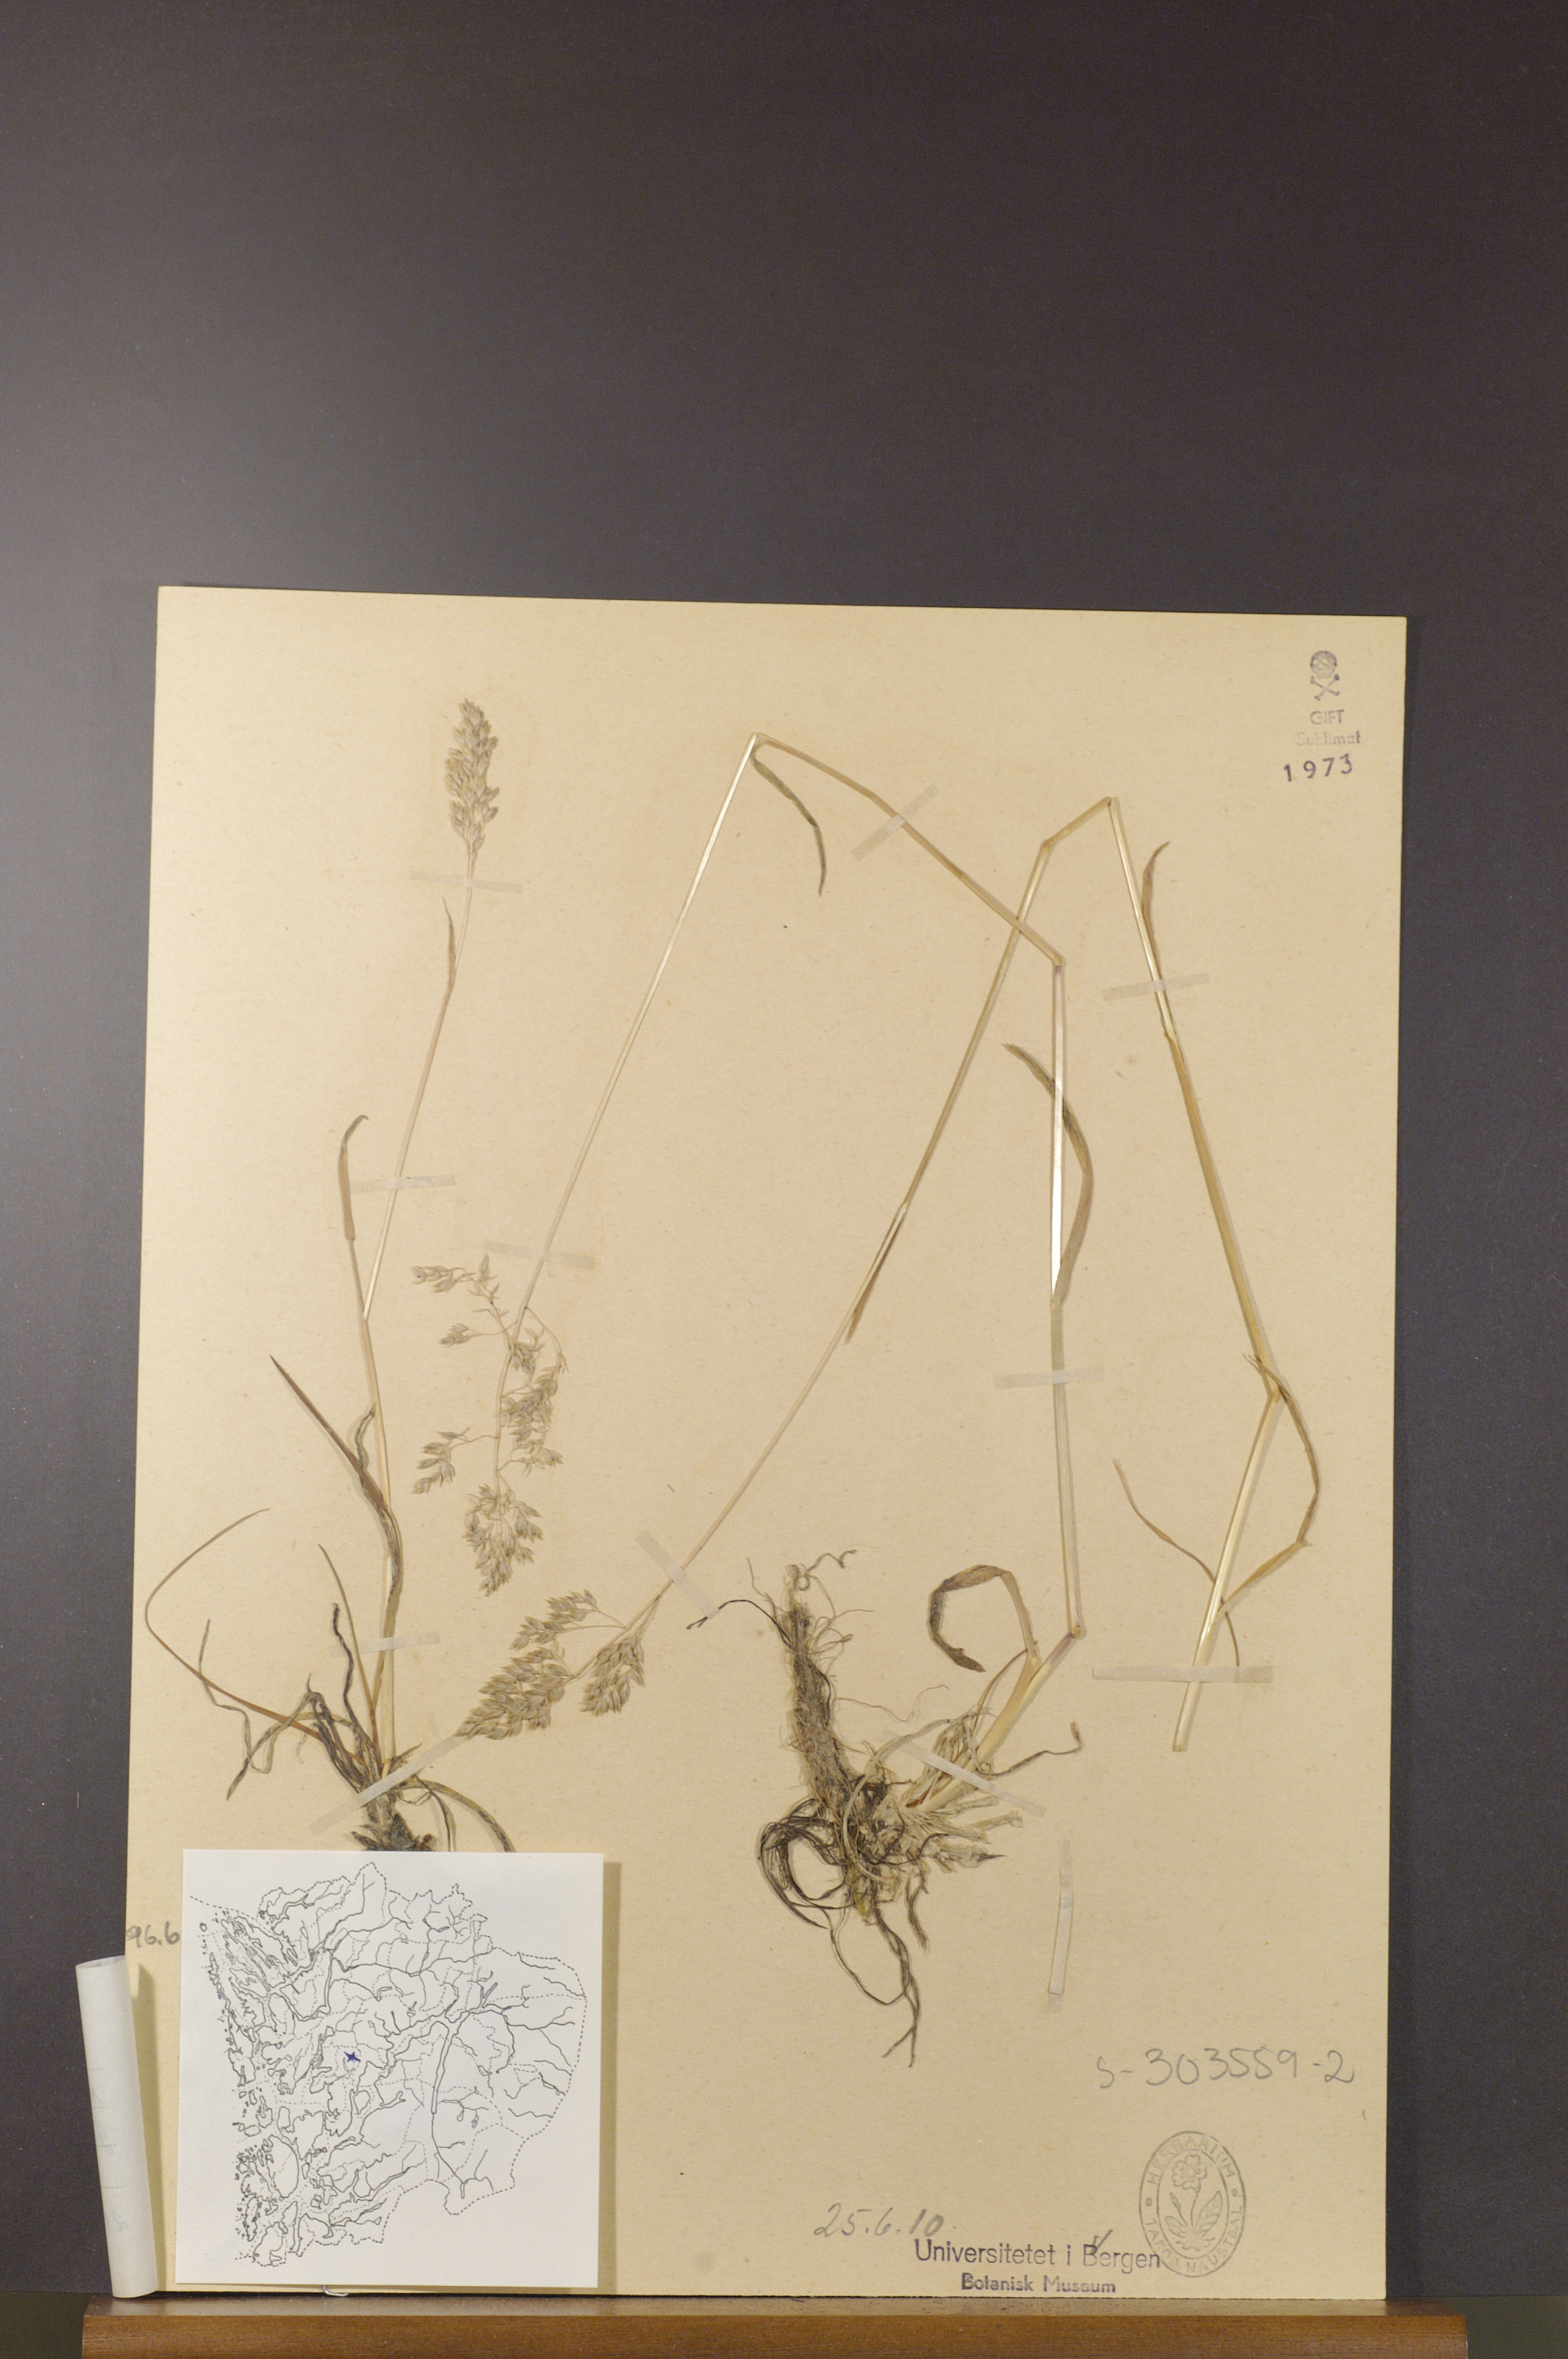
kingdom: Plantae
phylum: Tracheophyta
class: Liliopsida
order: Poales
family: Poaceae
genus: Poa
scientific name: Poa alpina
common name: Alpine bluegrass
